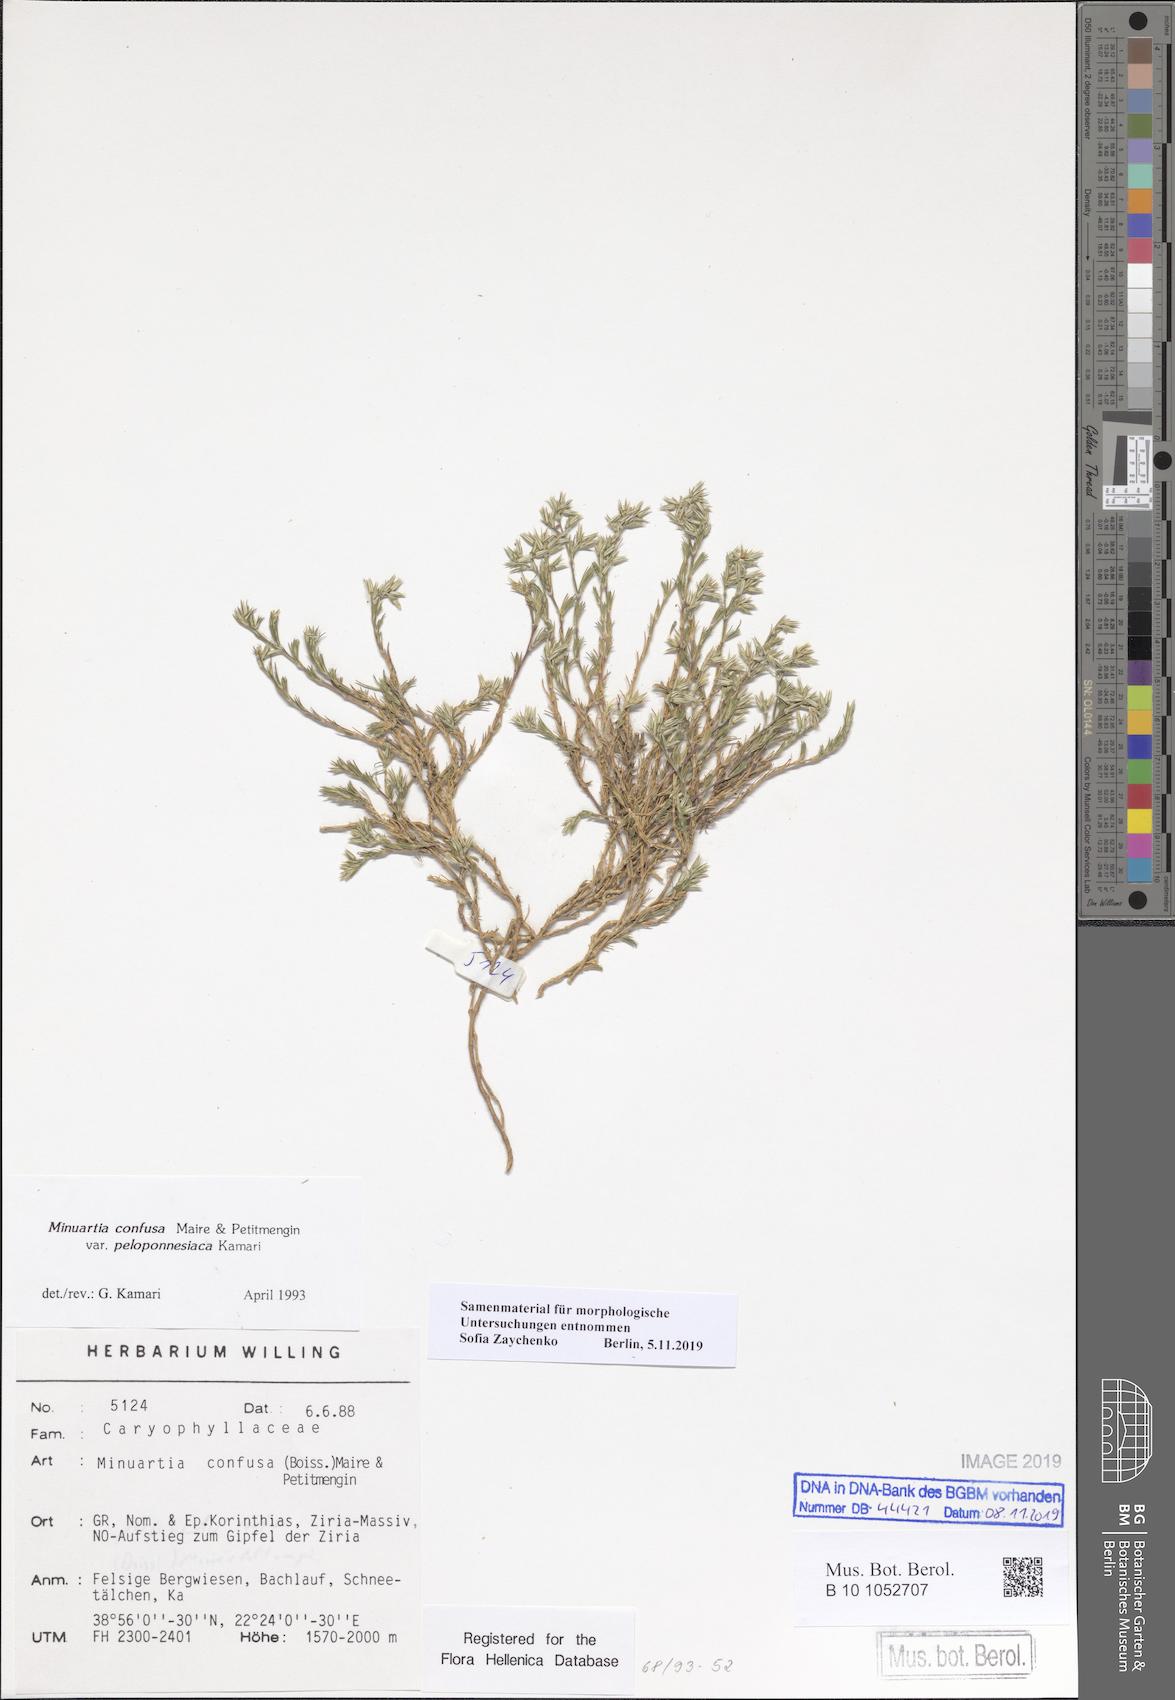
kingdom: Plantae
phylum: Tracheophyta
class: Magnoliopsida
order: Caryophyllales
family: Caryophyllaceae
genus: Minuartia
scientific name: Minuartia confusa
